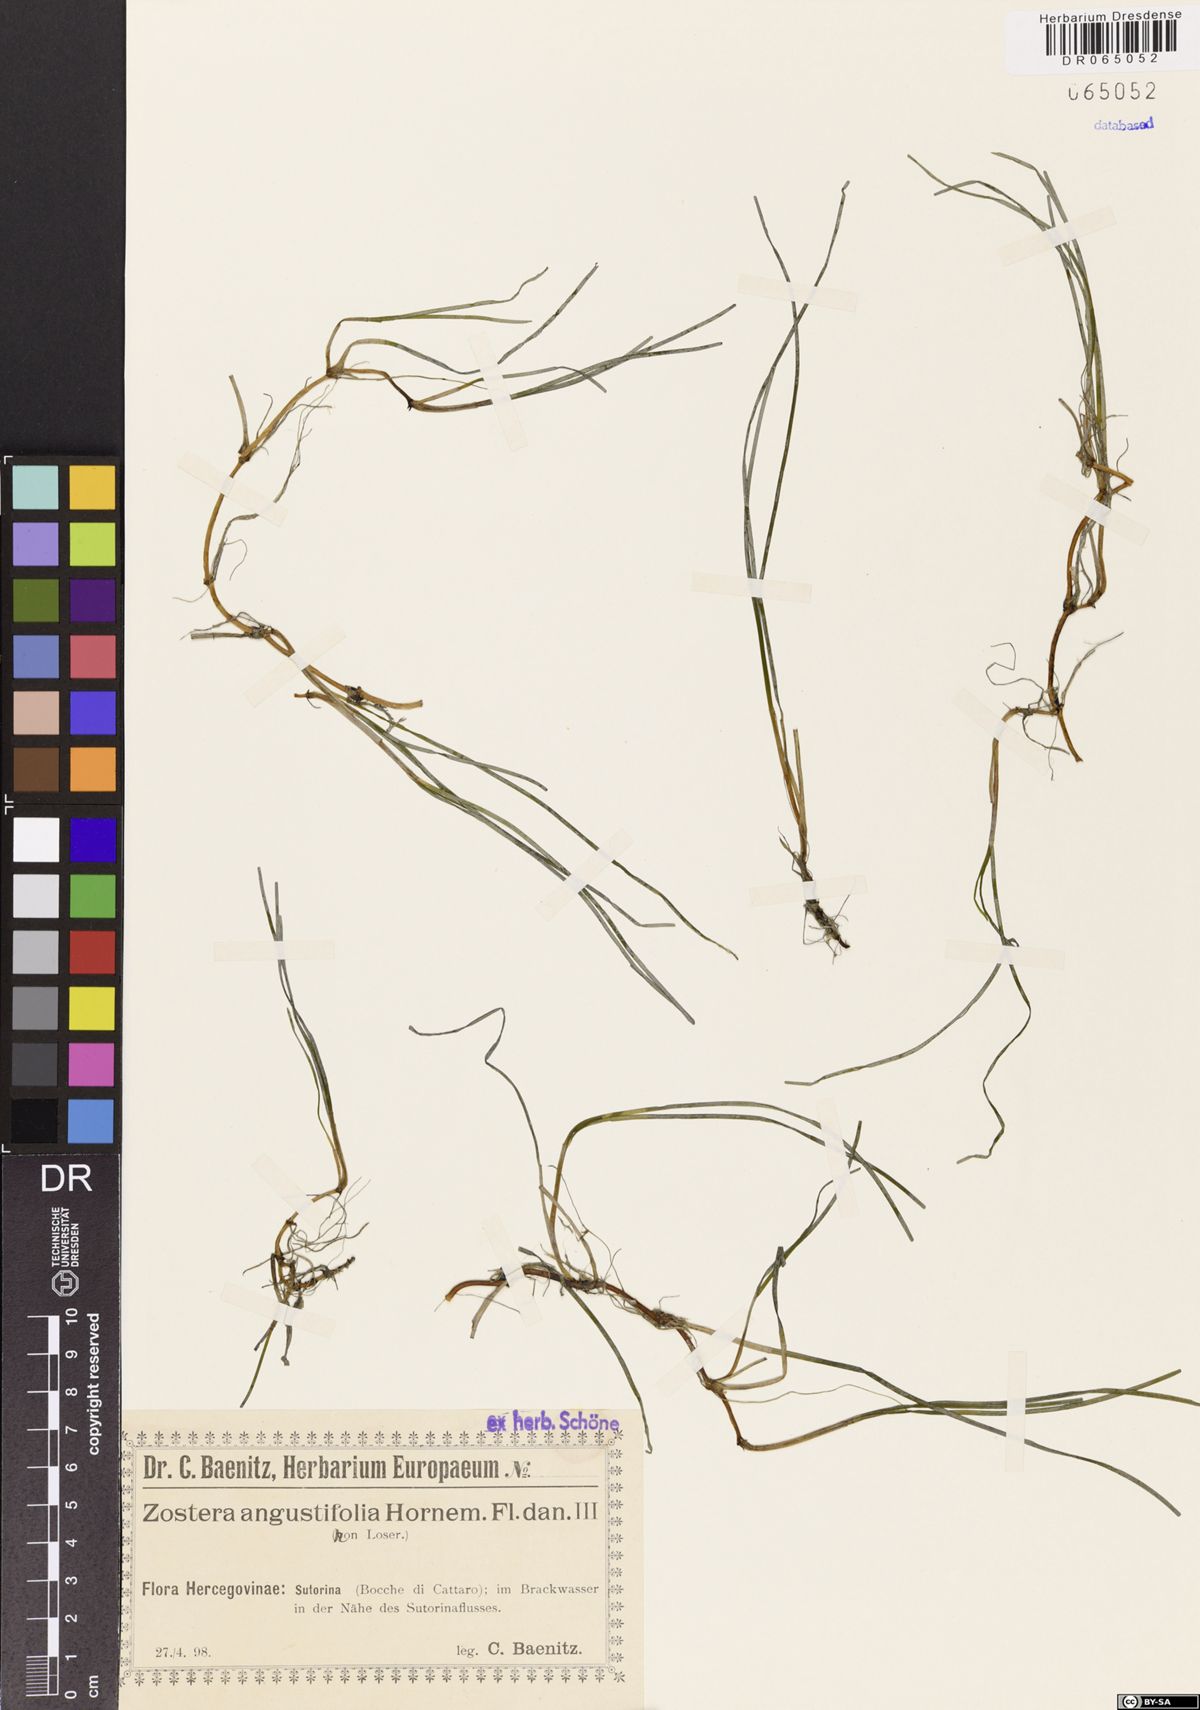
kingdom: Plantae
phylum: Tracheophyta
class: Liliopsida
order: Alismatales
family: Zosteraceae
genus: Zostera
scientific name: Zostera angustifolia
